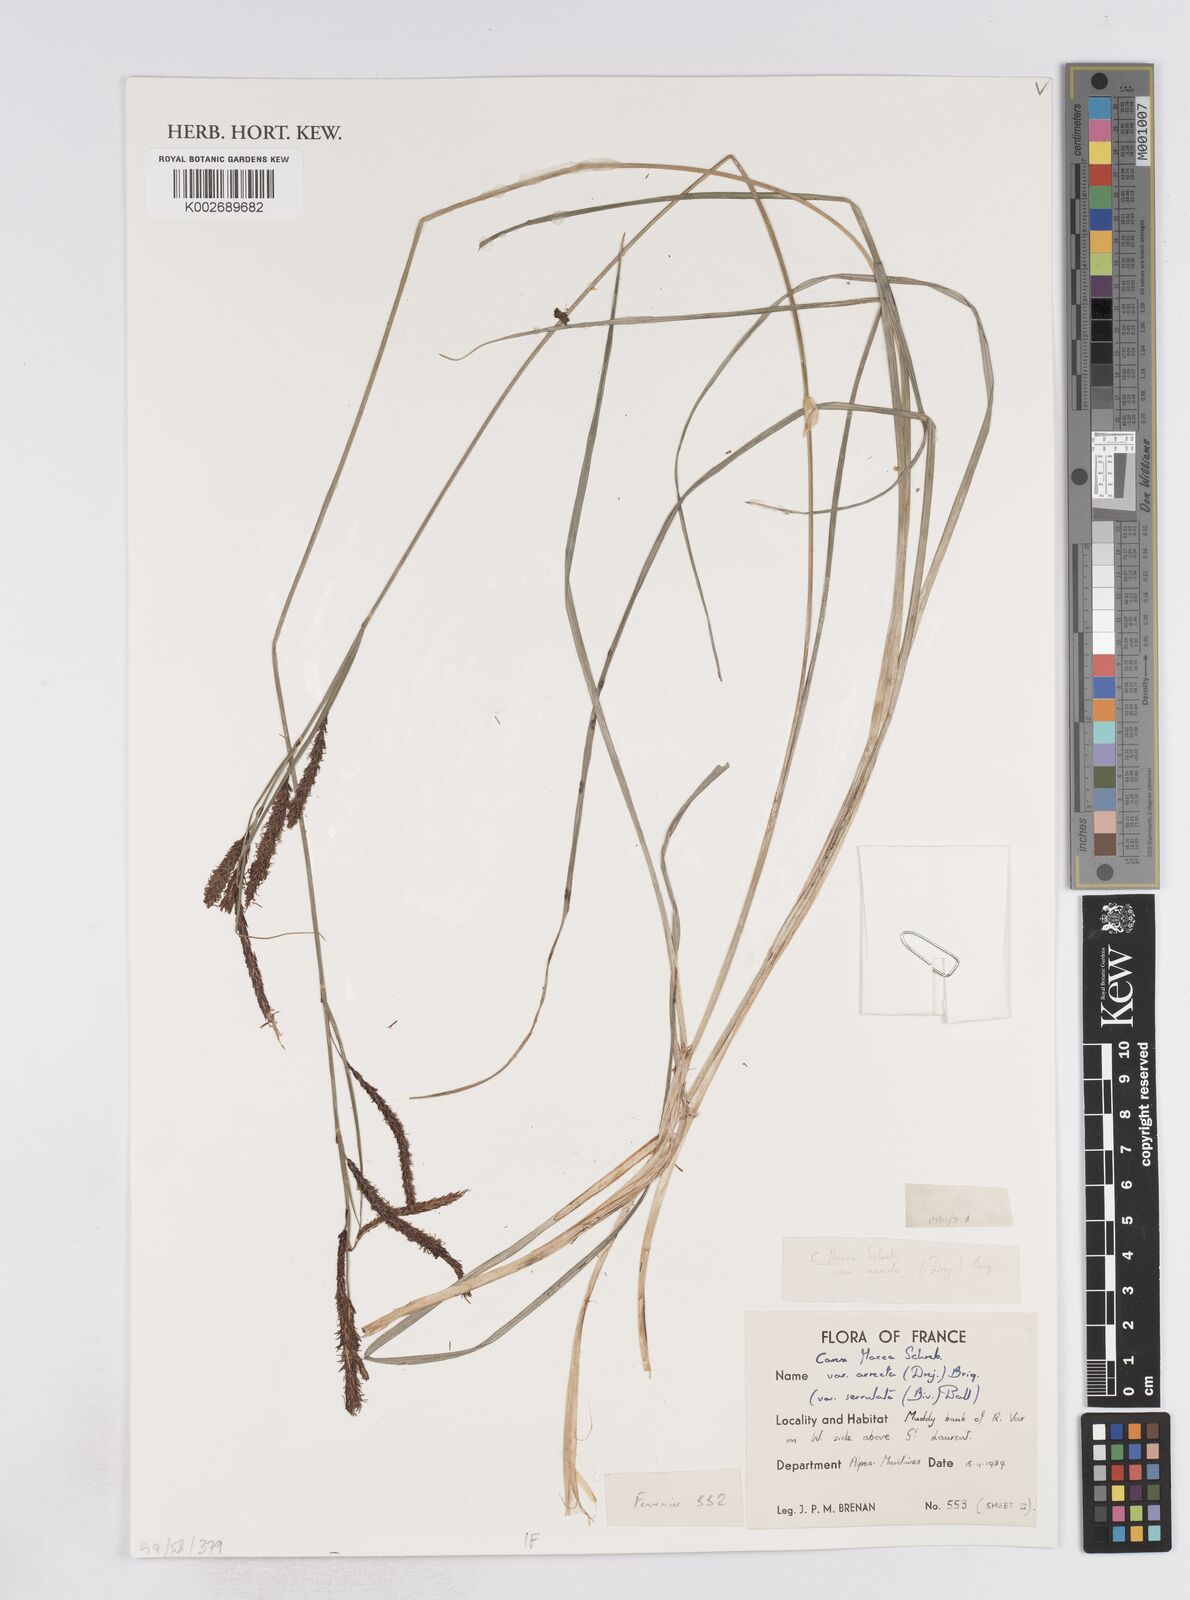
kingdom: Plantae
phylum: Tracheophyta
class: Liliopsida
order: Poales
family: Cyperaceae
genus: Carex
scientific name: Carex flacca
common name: Glaucous sedge
